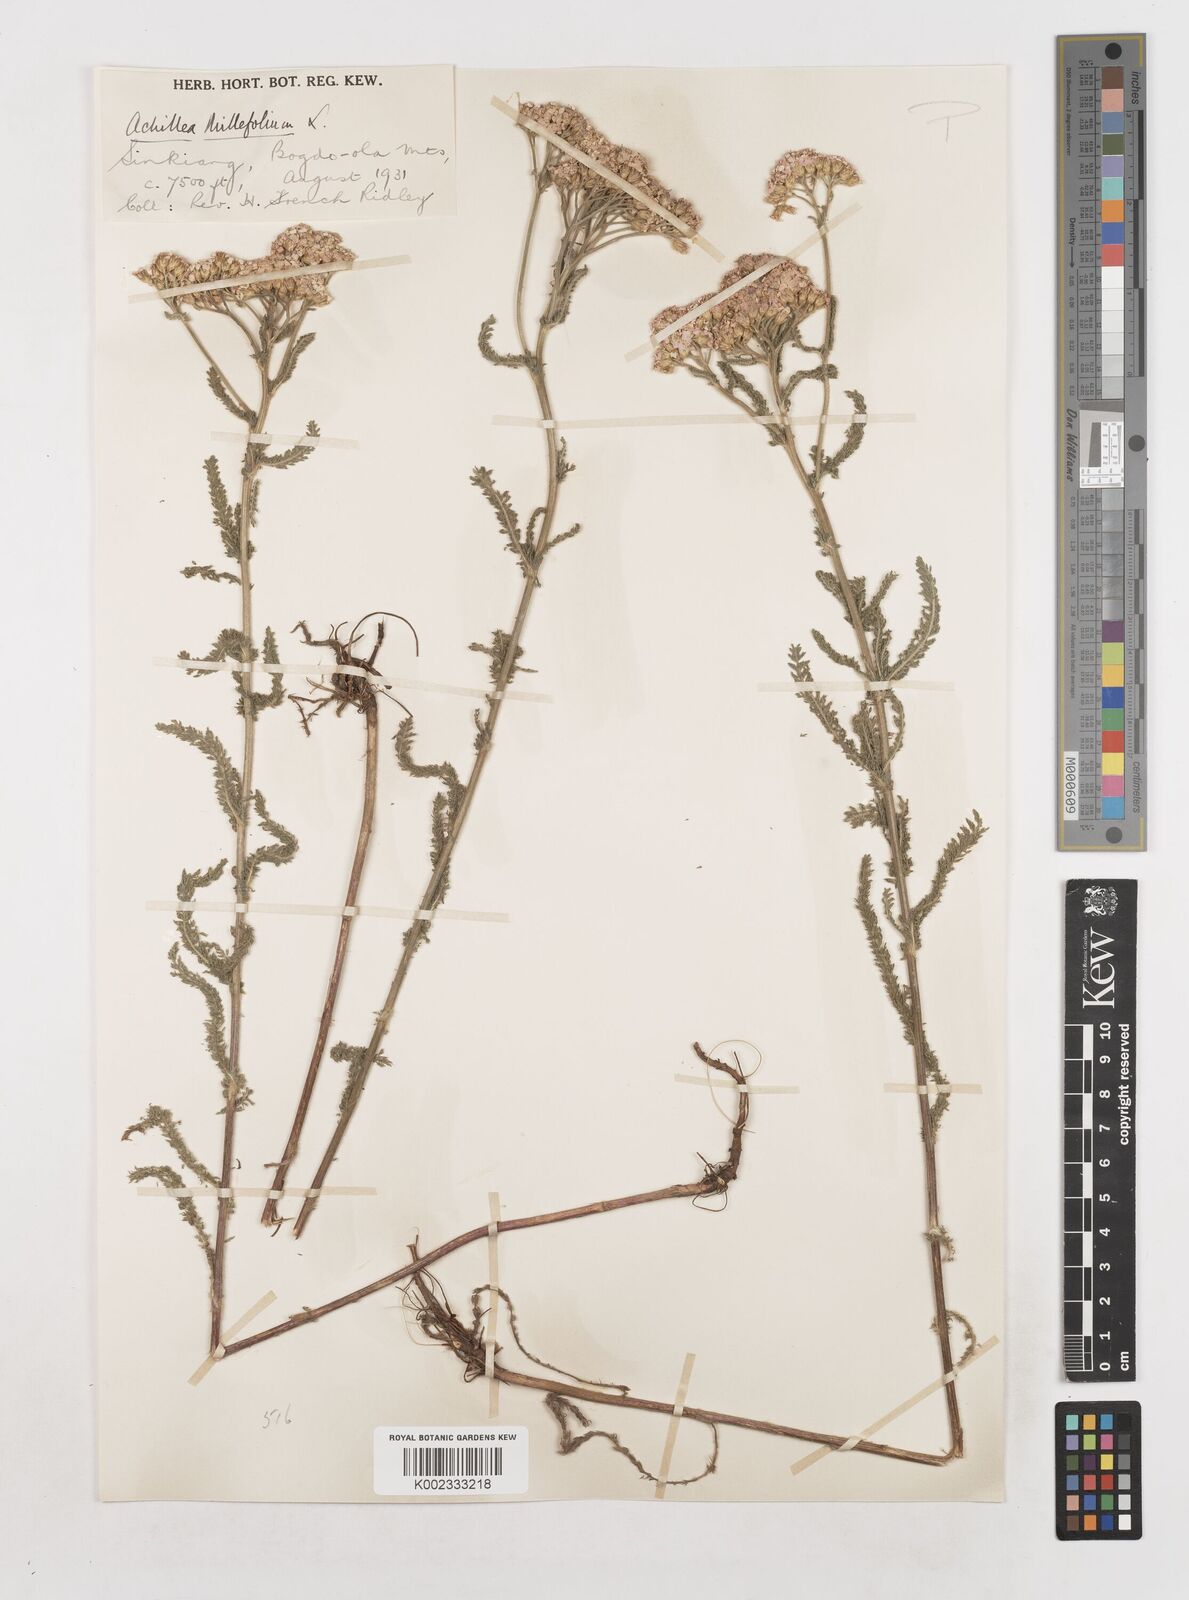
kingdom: Plantae
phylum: Tracheophyta
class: Magnoliopsida
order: Asterales
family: Asteraceae
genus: Achillea
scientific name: Achillea millefolium
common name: Yarrow
